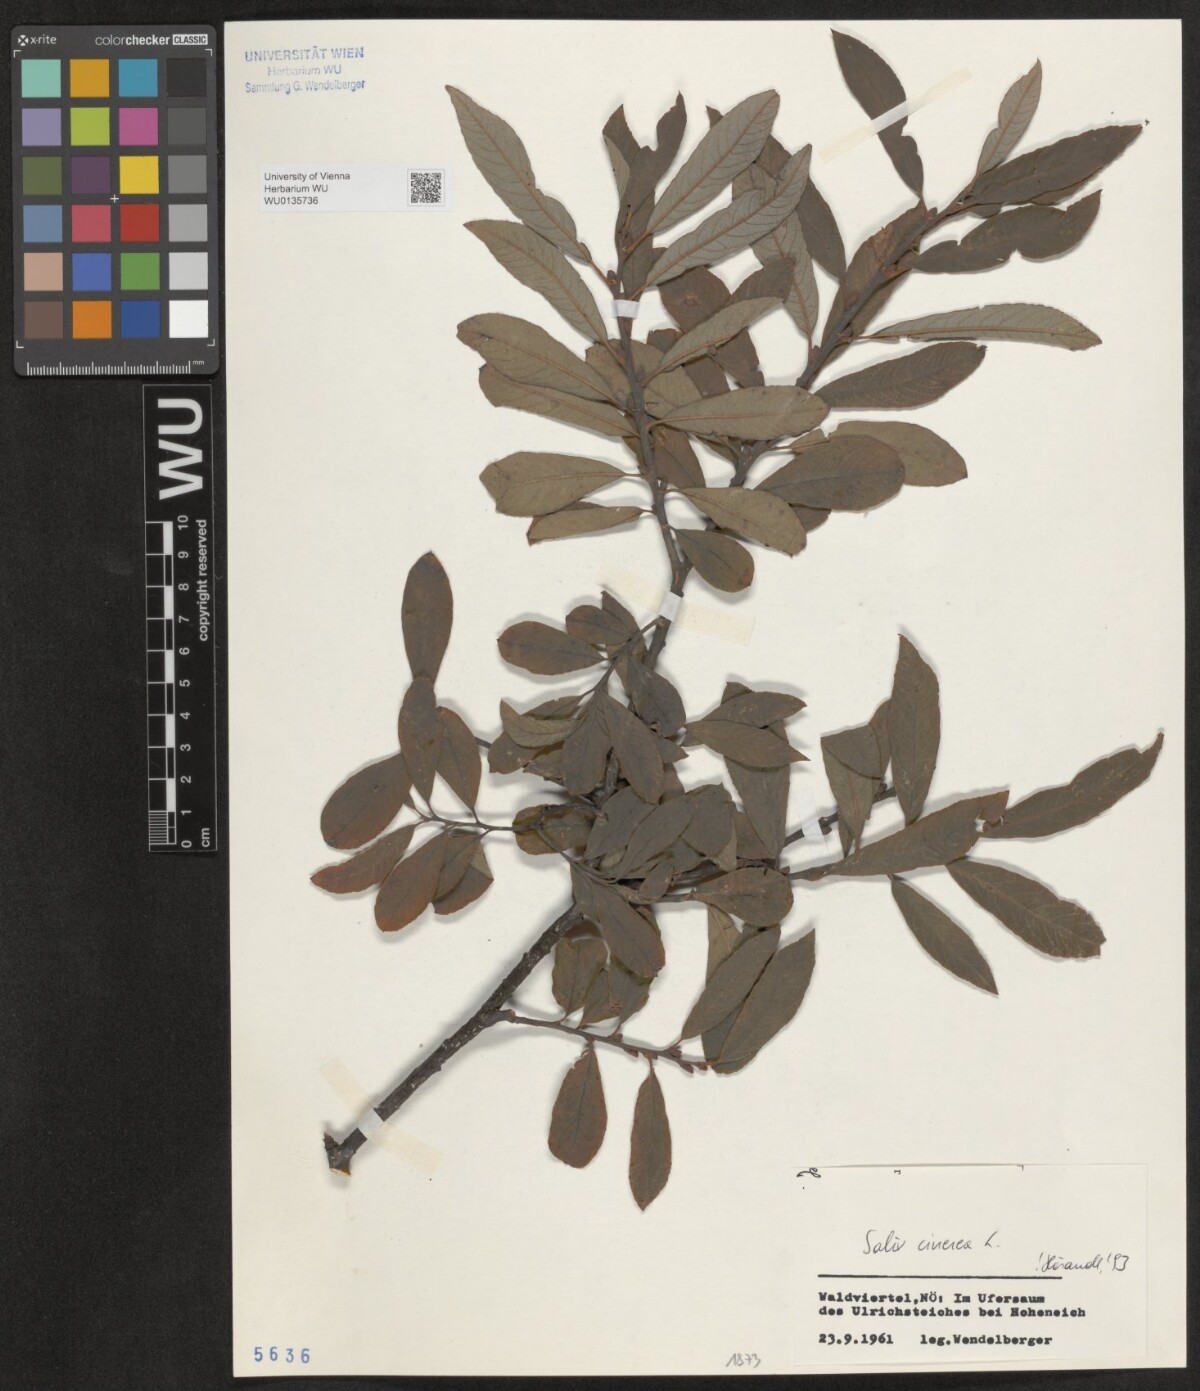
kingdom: Plantae
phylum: Tracheophyta
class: Magnoliopsida
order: Malpighiales
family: Salicaceae
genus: Salix
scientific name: Salix cinerea
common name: Common sallow
